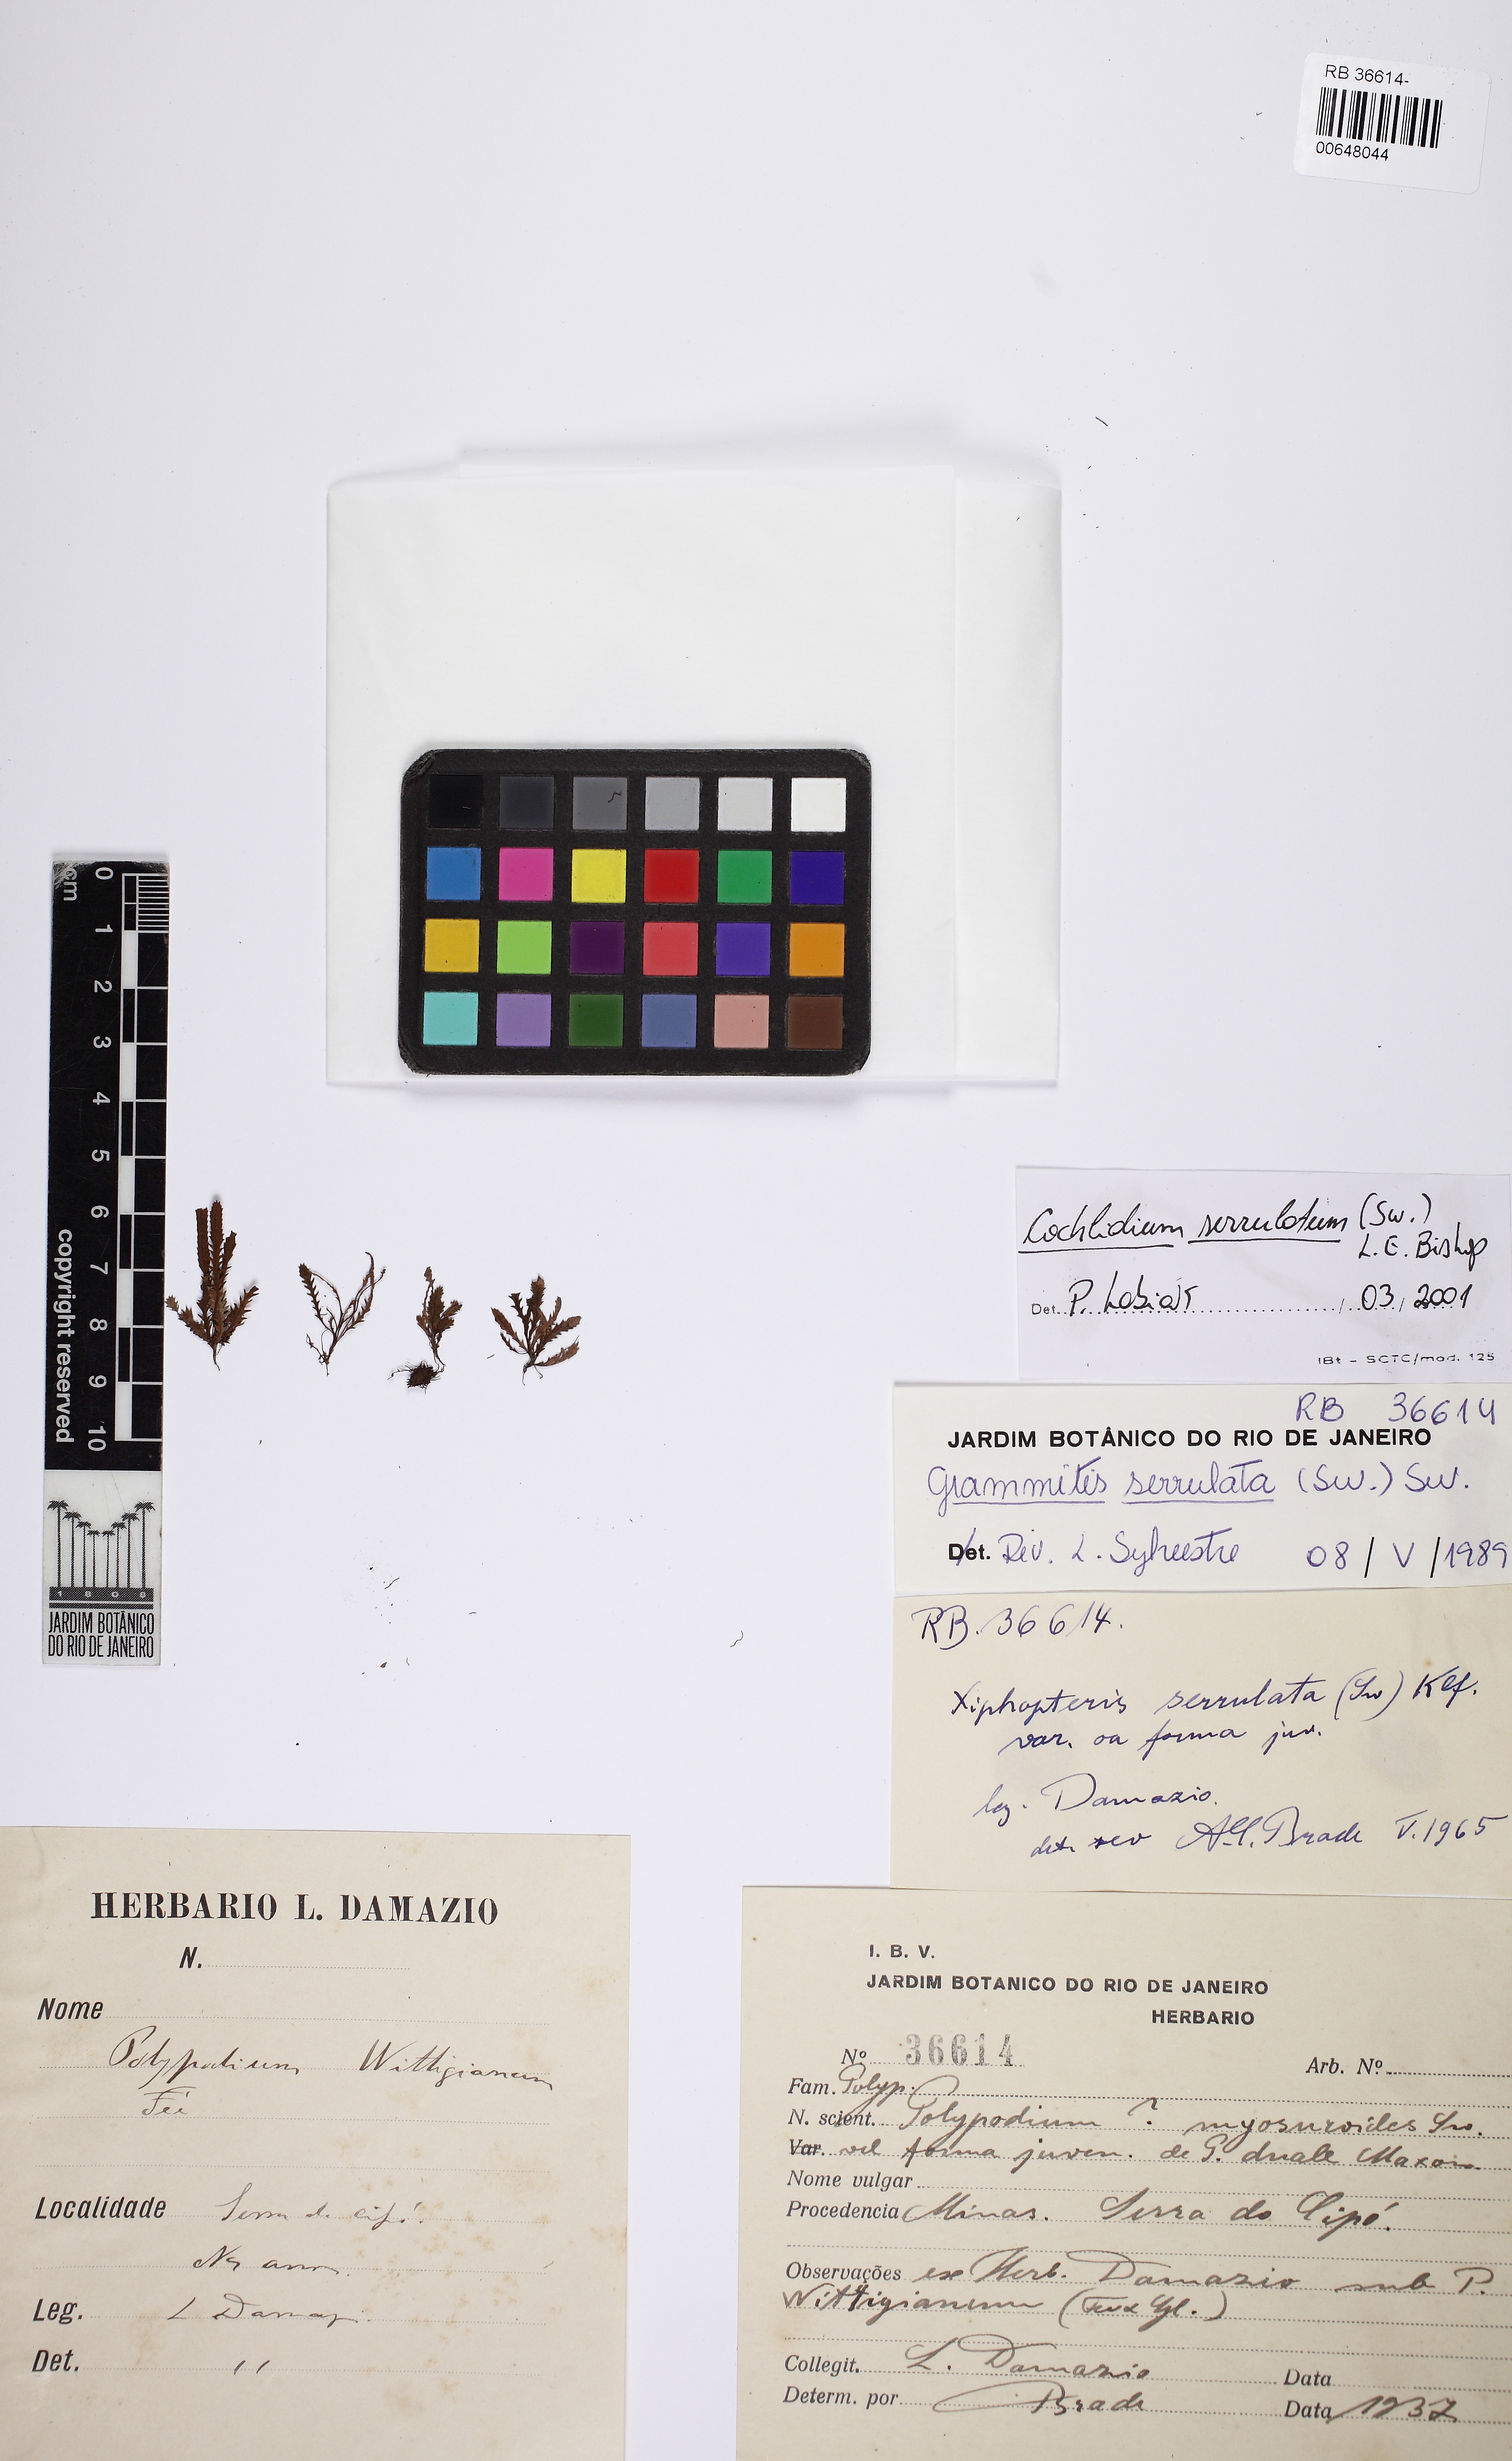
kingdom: Plantae
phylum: Tracheophyta
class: Polypodiopsida
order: Polypodiales
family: Polypodiaceae
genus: Cochlidium
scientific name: Cochlidium serrulatum
